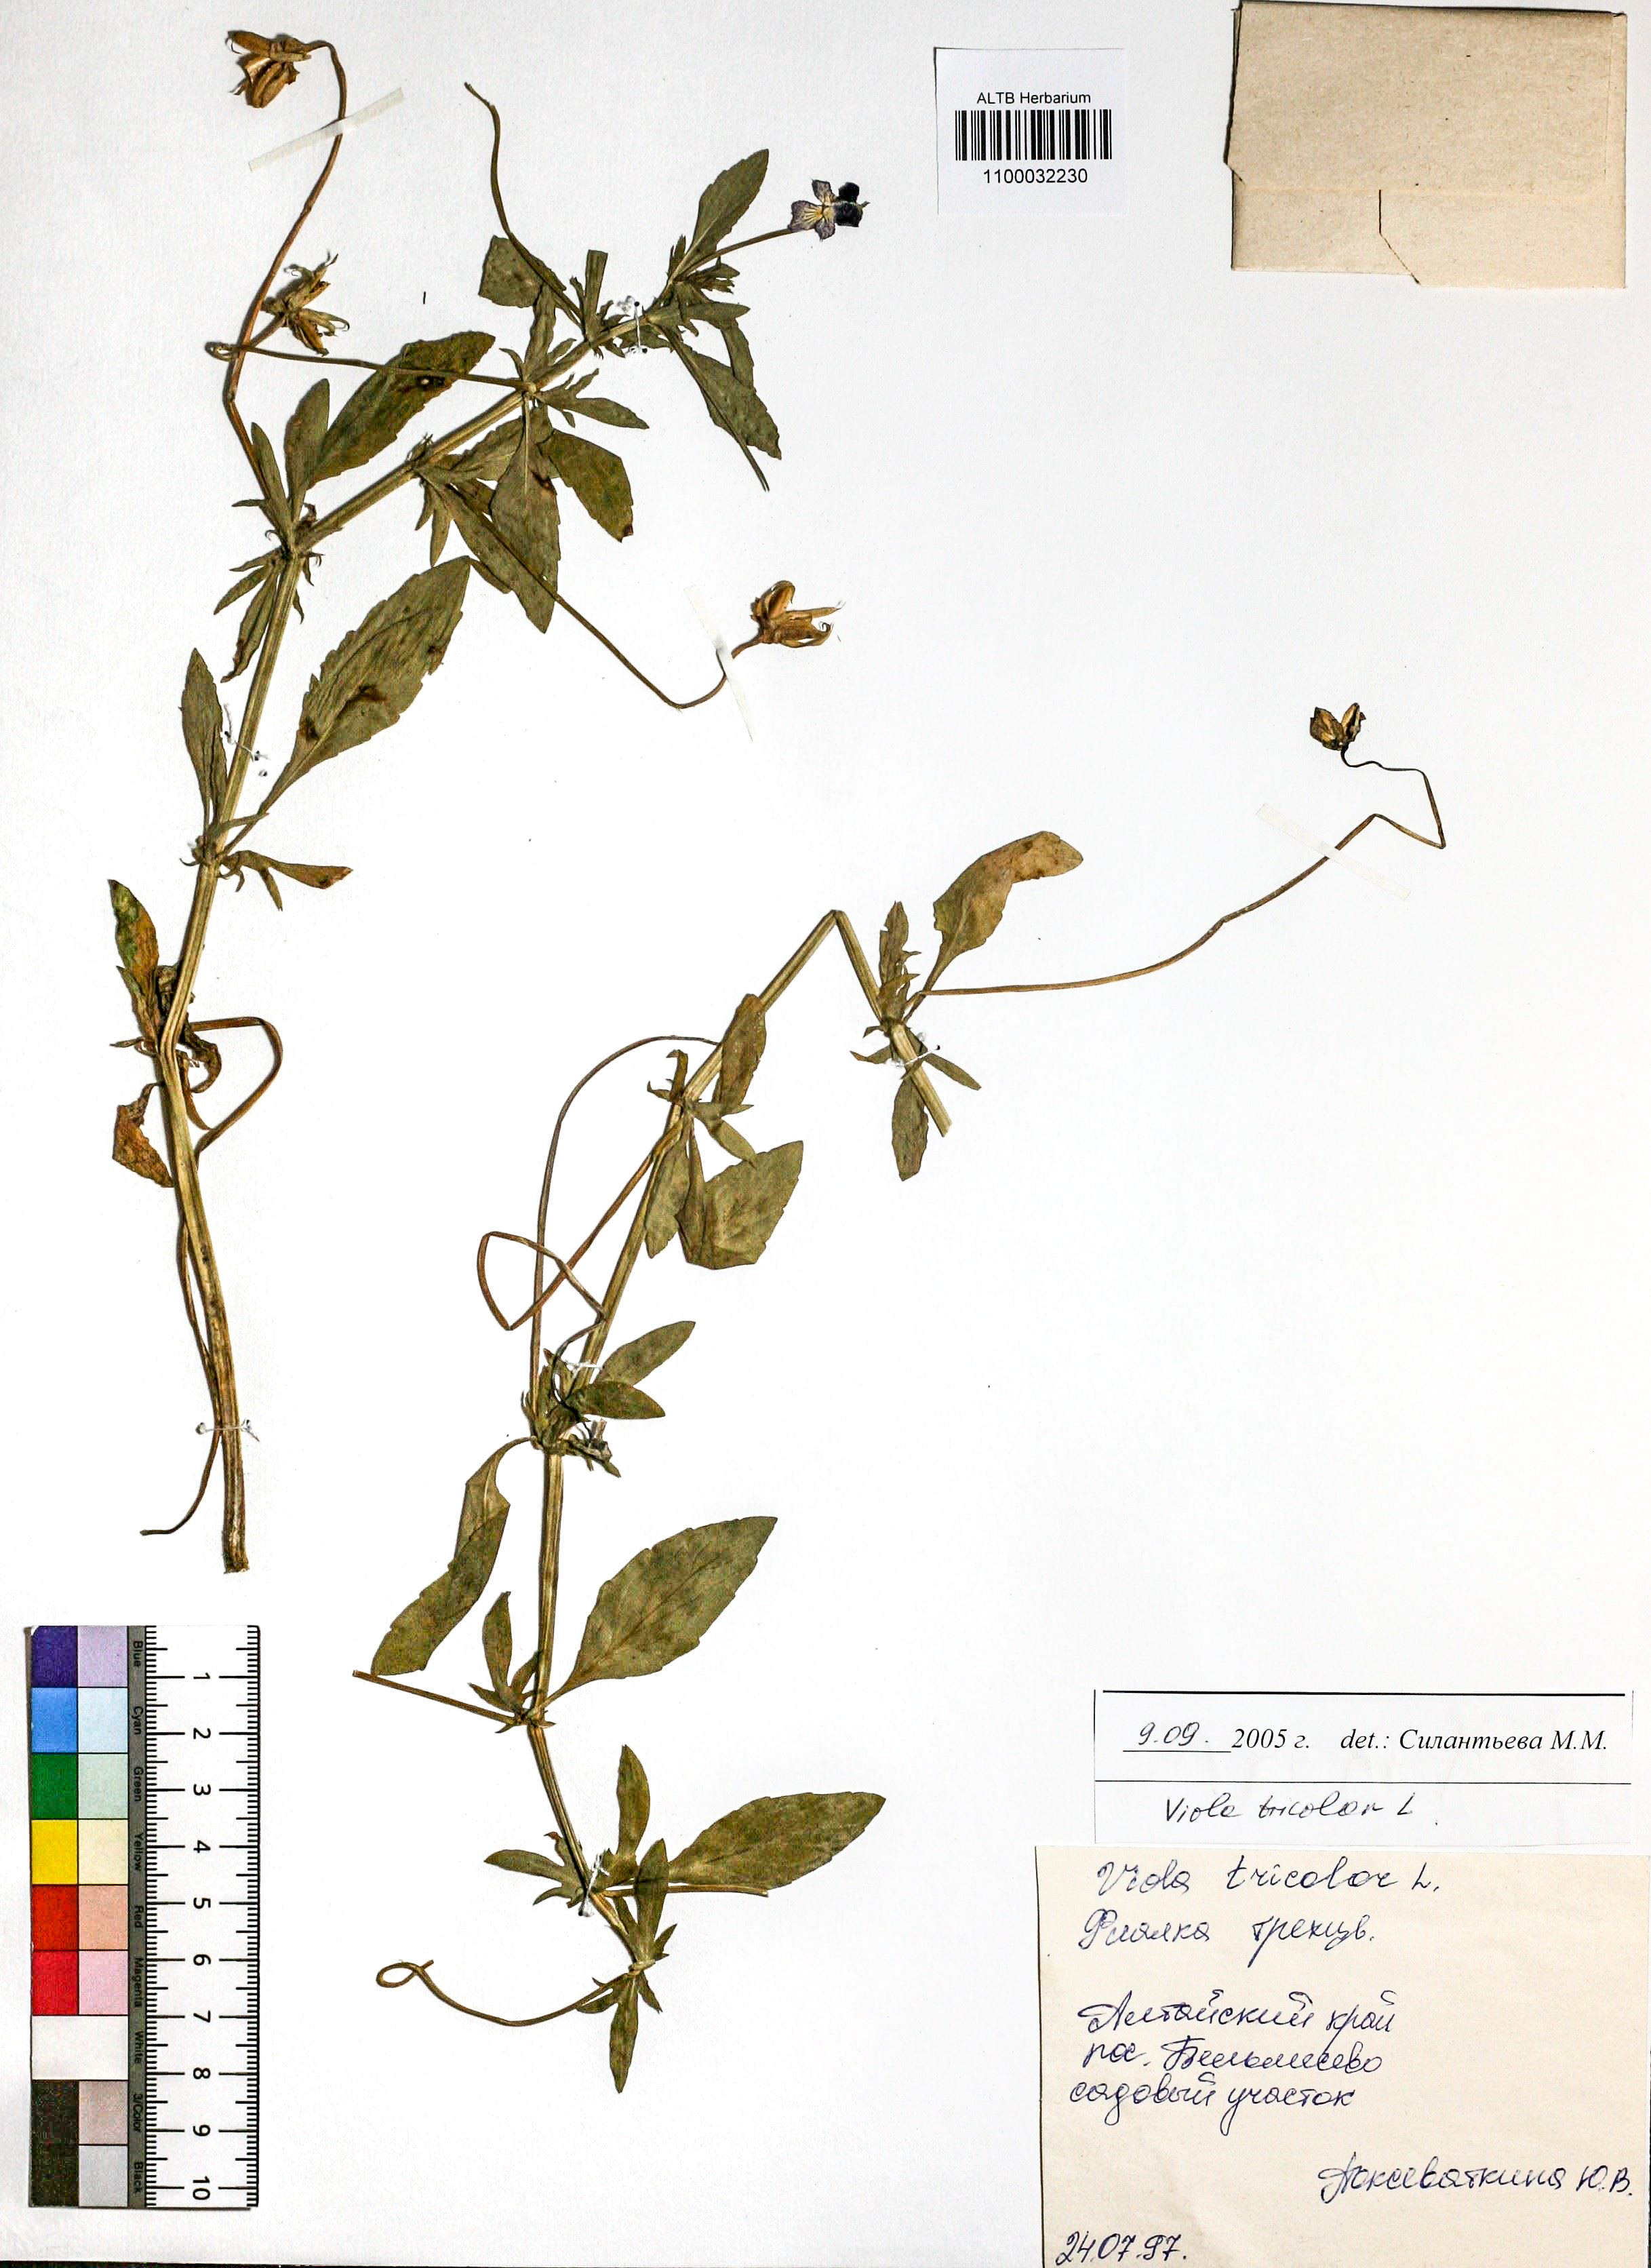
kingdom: Plantae
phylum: Tracheophyta
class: Magnoliopsida
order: Malpighiales
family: Violaceae
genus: Viola
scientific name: Viola tricolor
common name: Pansy
